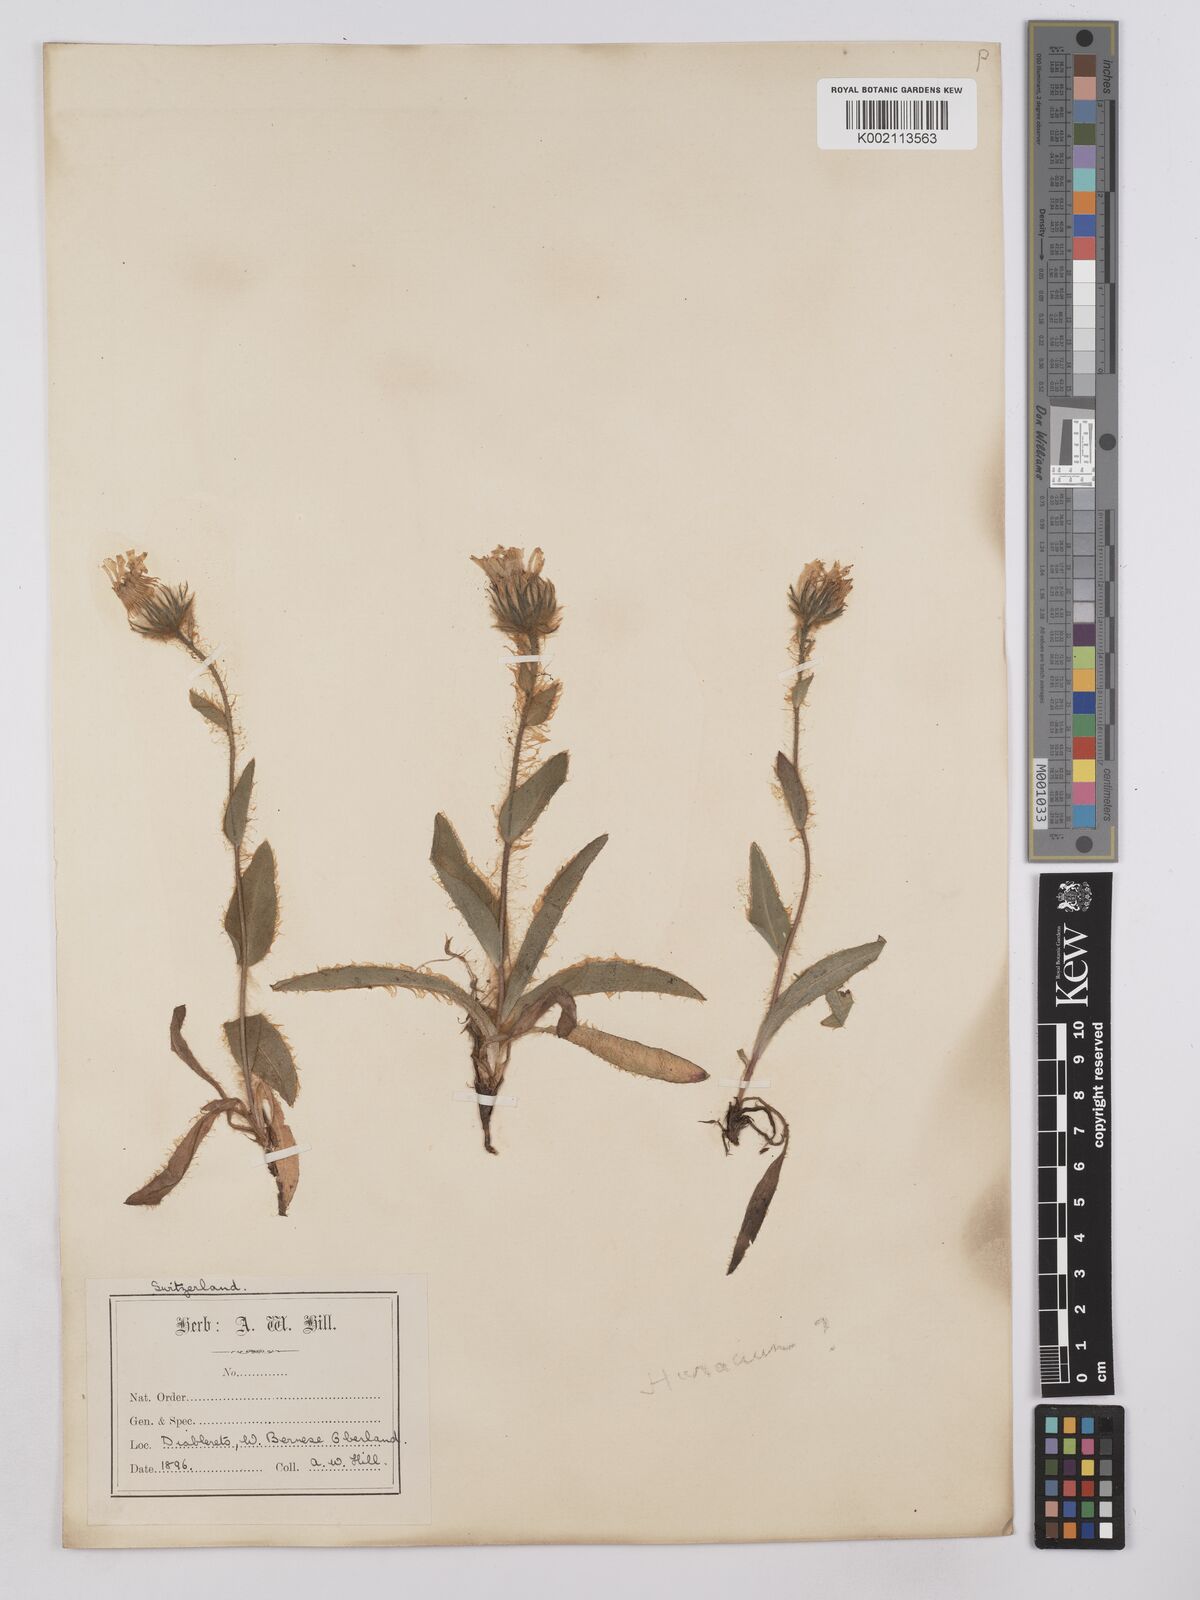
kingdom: Plantae
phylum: Tracheophyta
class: Magnoliopsida
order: Asterales
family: Asteraceae
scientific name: Asteraceae
